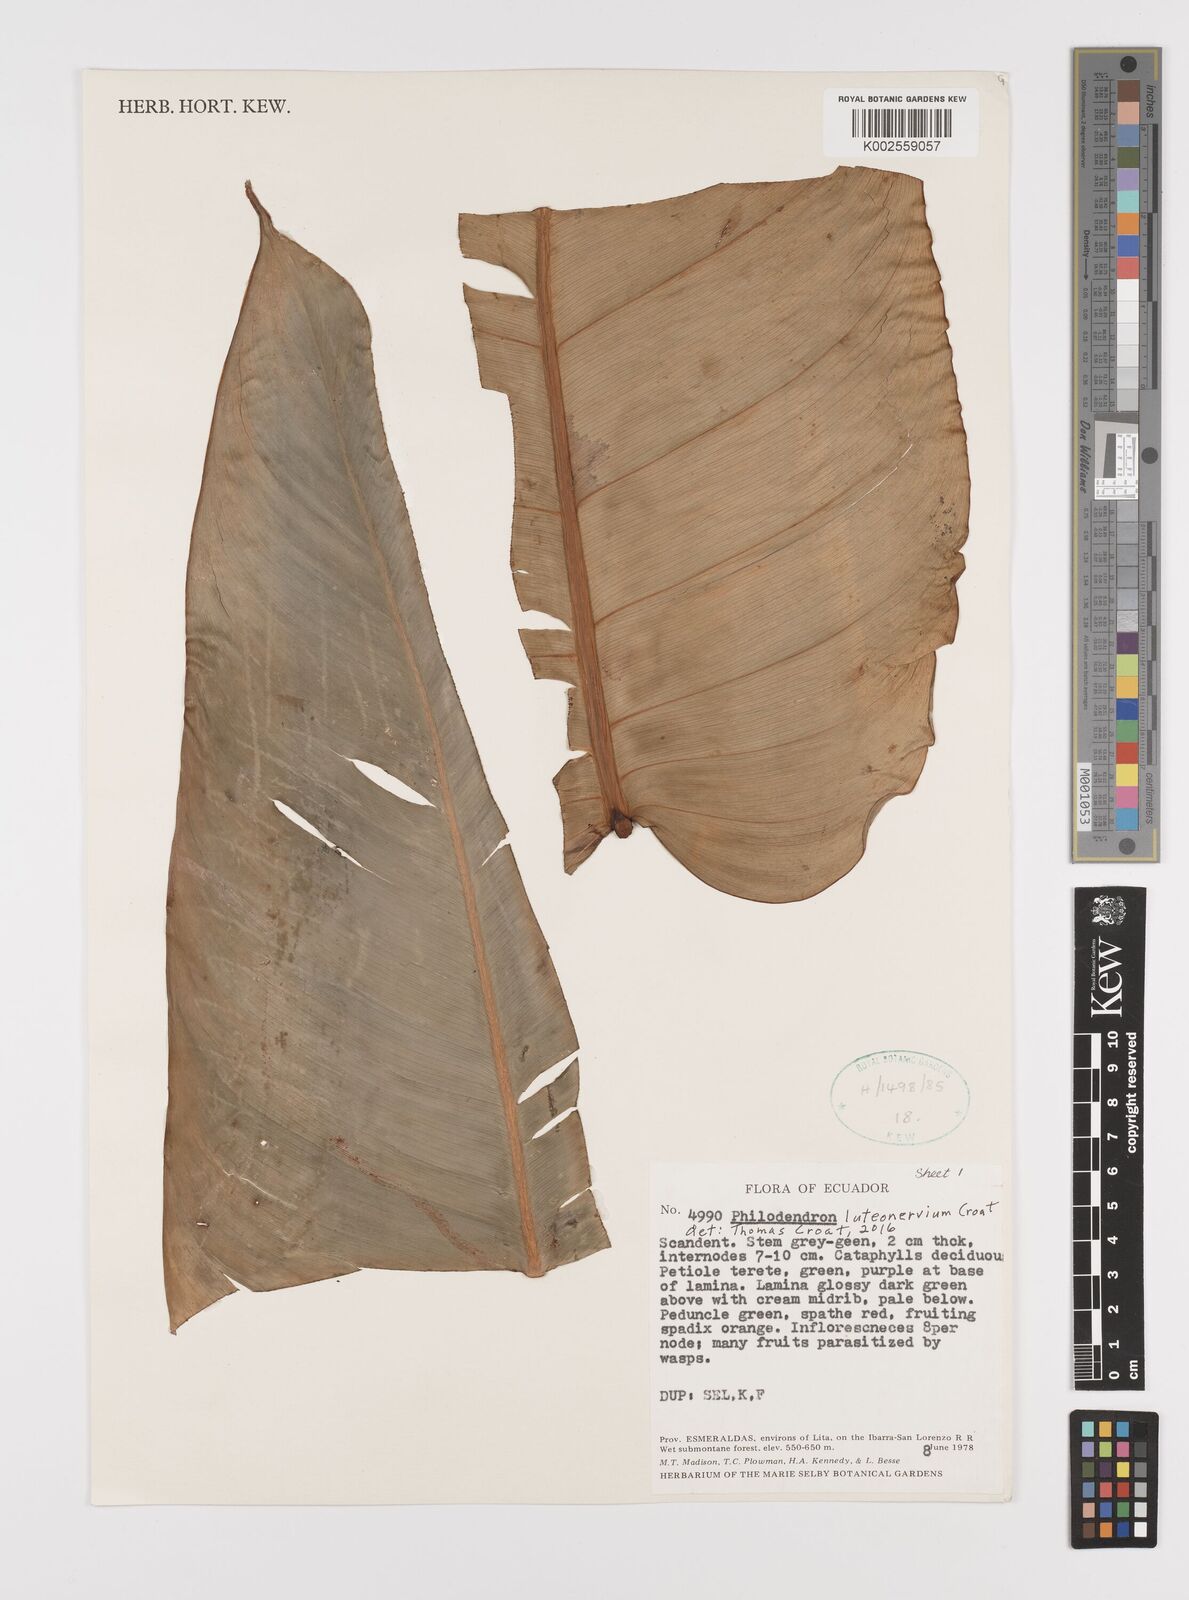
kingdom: Plantae
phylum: Tracheophyta
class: Liliopsida
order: Alismatales
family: Araceae
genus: Philodendron
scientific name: Philodendron luteonervium
